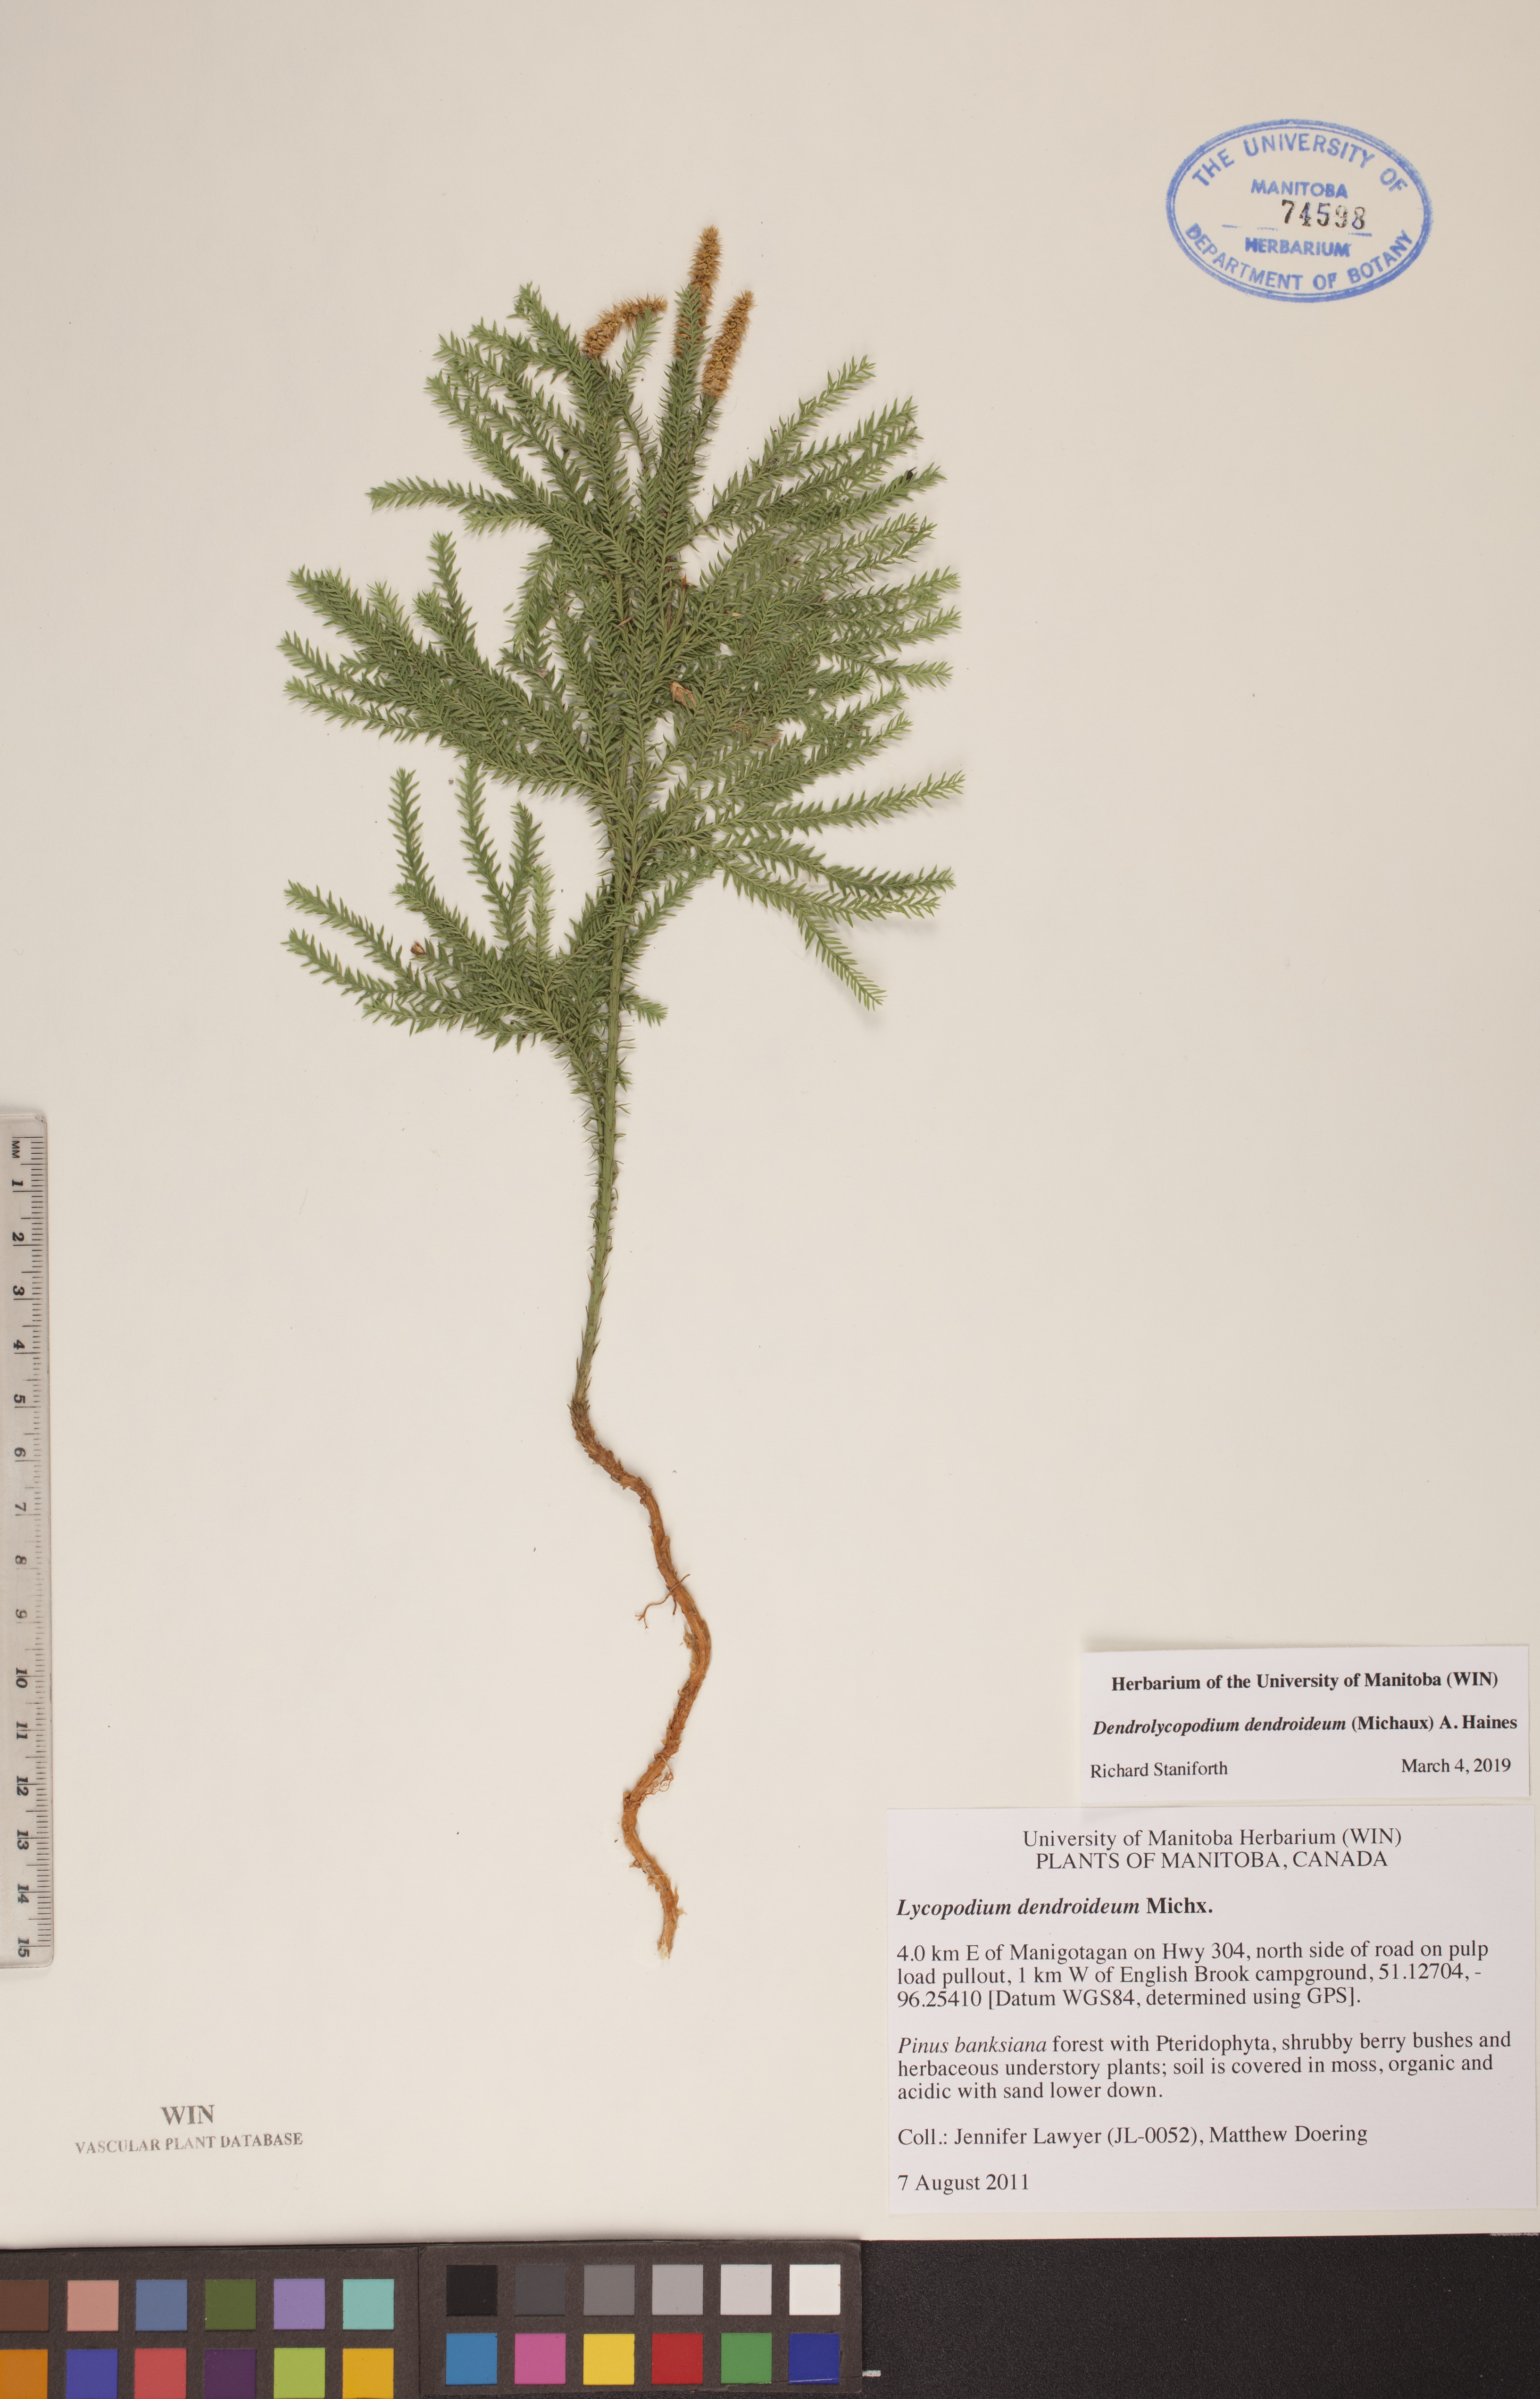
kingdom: Plantae
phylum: Tracheophyta
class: Lycopodiopsida
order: Lycopodiales
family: Lycopodiaceae
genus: Dendrolycopodium
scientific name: Dendrolycopodium dendroideum
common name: Northern tree-clubmoss
